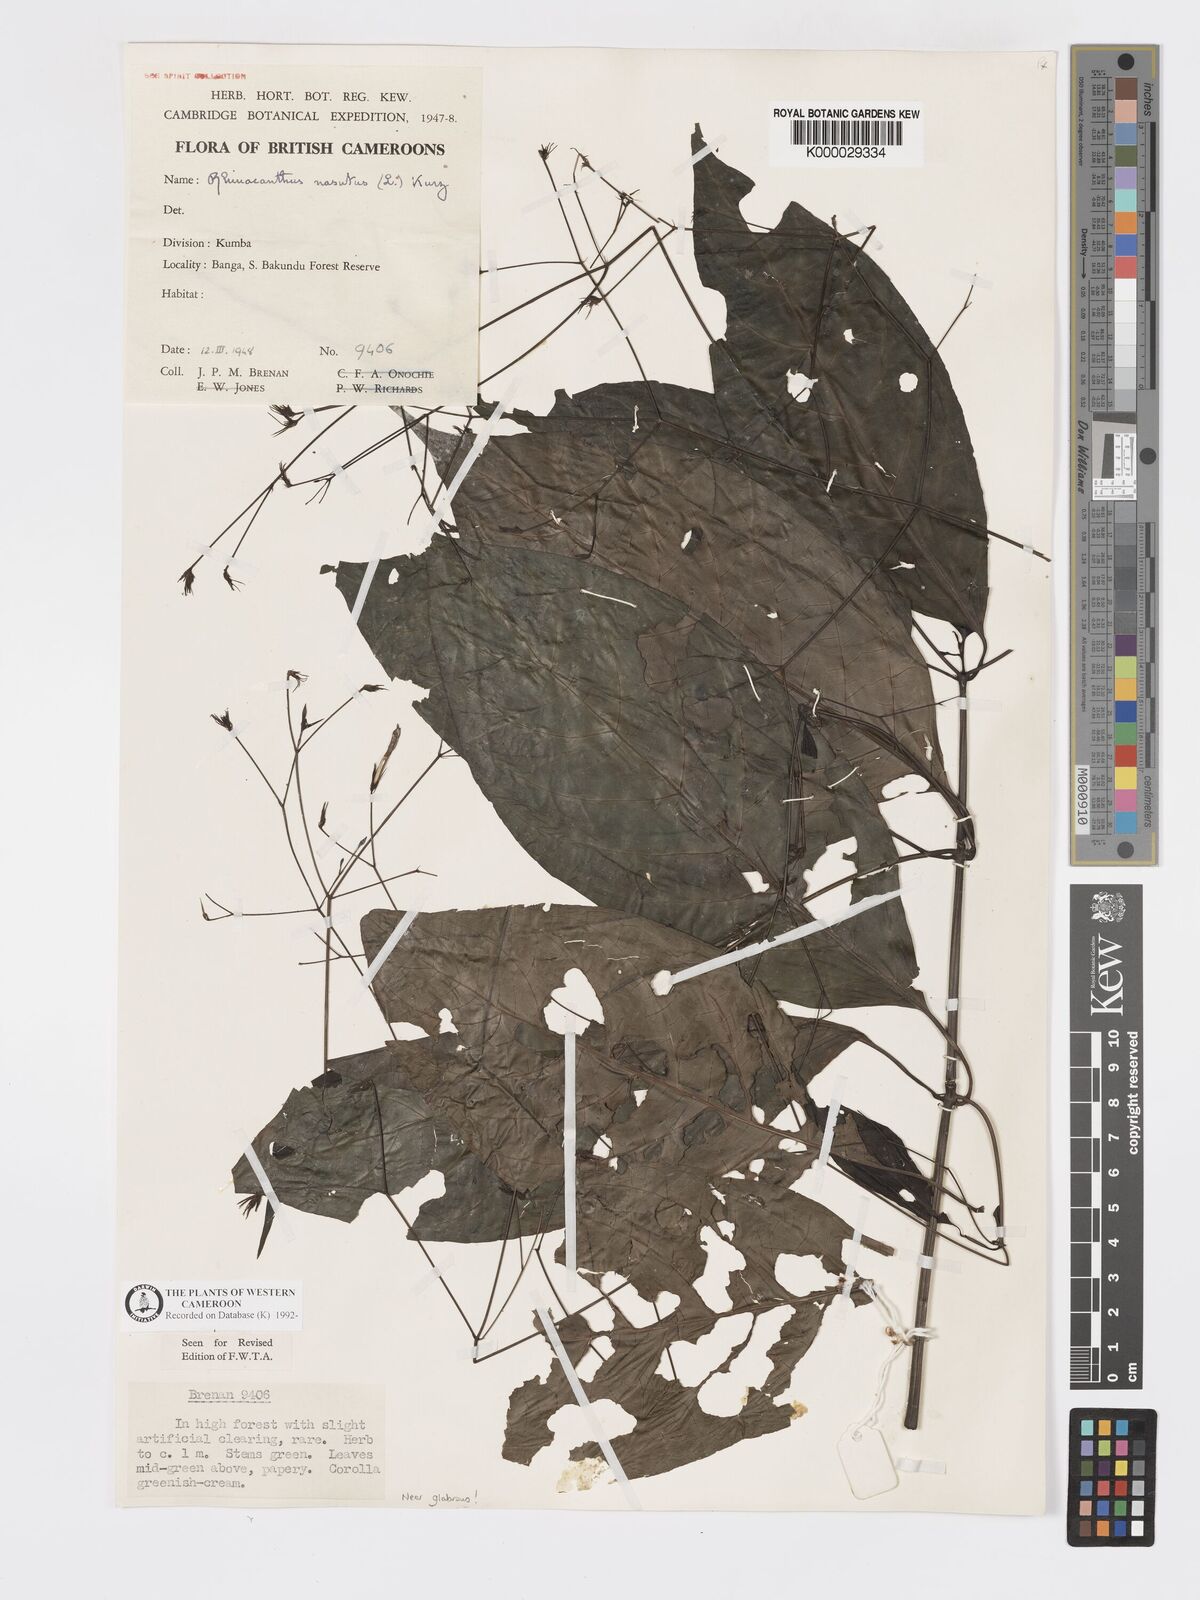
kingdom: Plantae
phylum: Tracheophyta
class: Magnoliopsida
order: Lamiales
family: Acanthaceae
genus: Rhinacanthus
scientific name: Rhinacanthus virens
